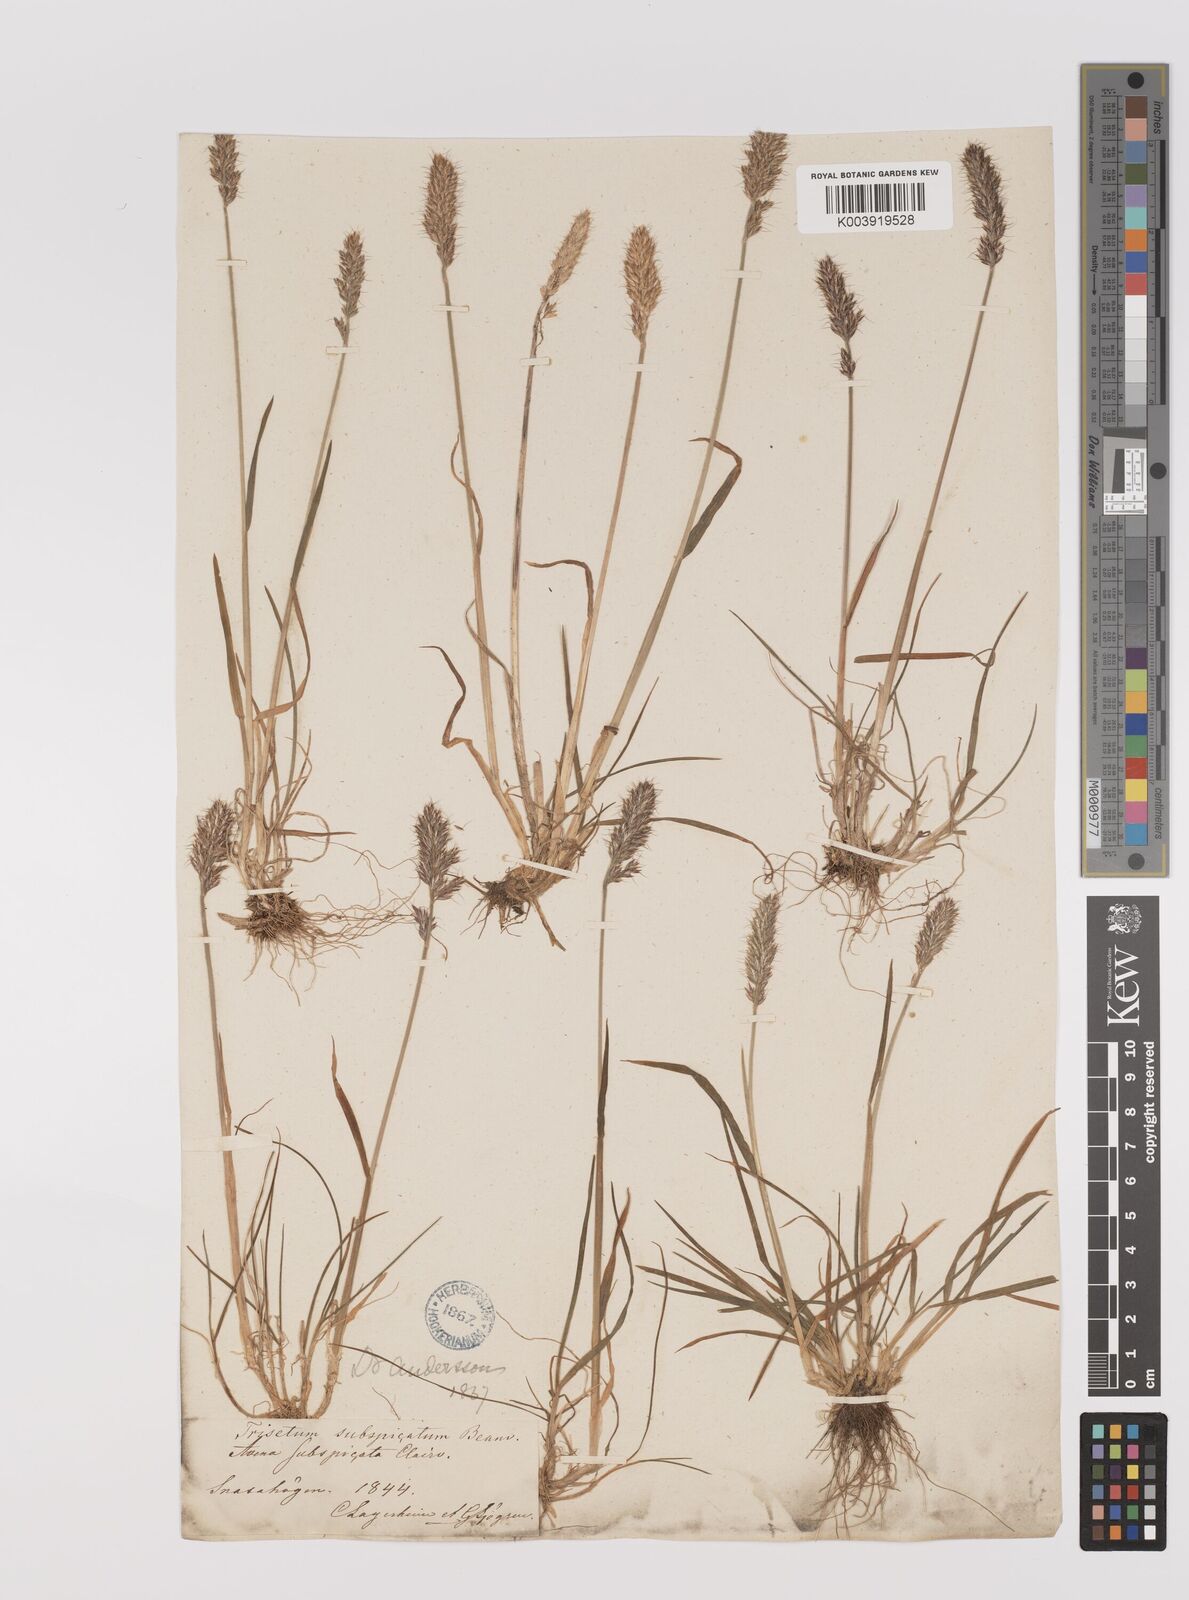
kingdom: Plantae
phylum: Tracheophyta
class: Liliopsida
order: Poales
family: Poaceae
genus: Koeleria
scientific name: Koeleria spicata
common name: Mountain trisetum
